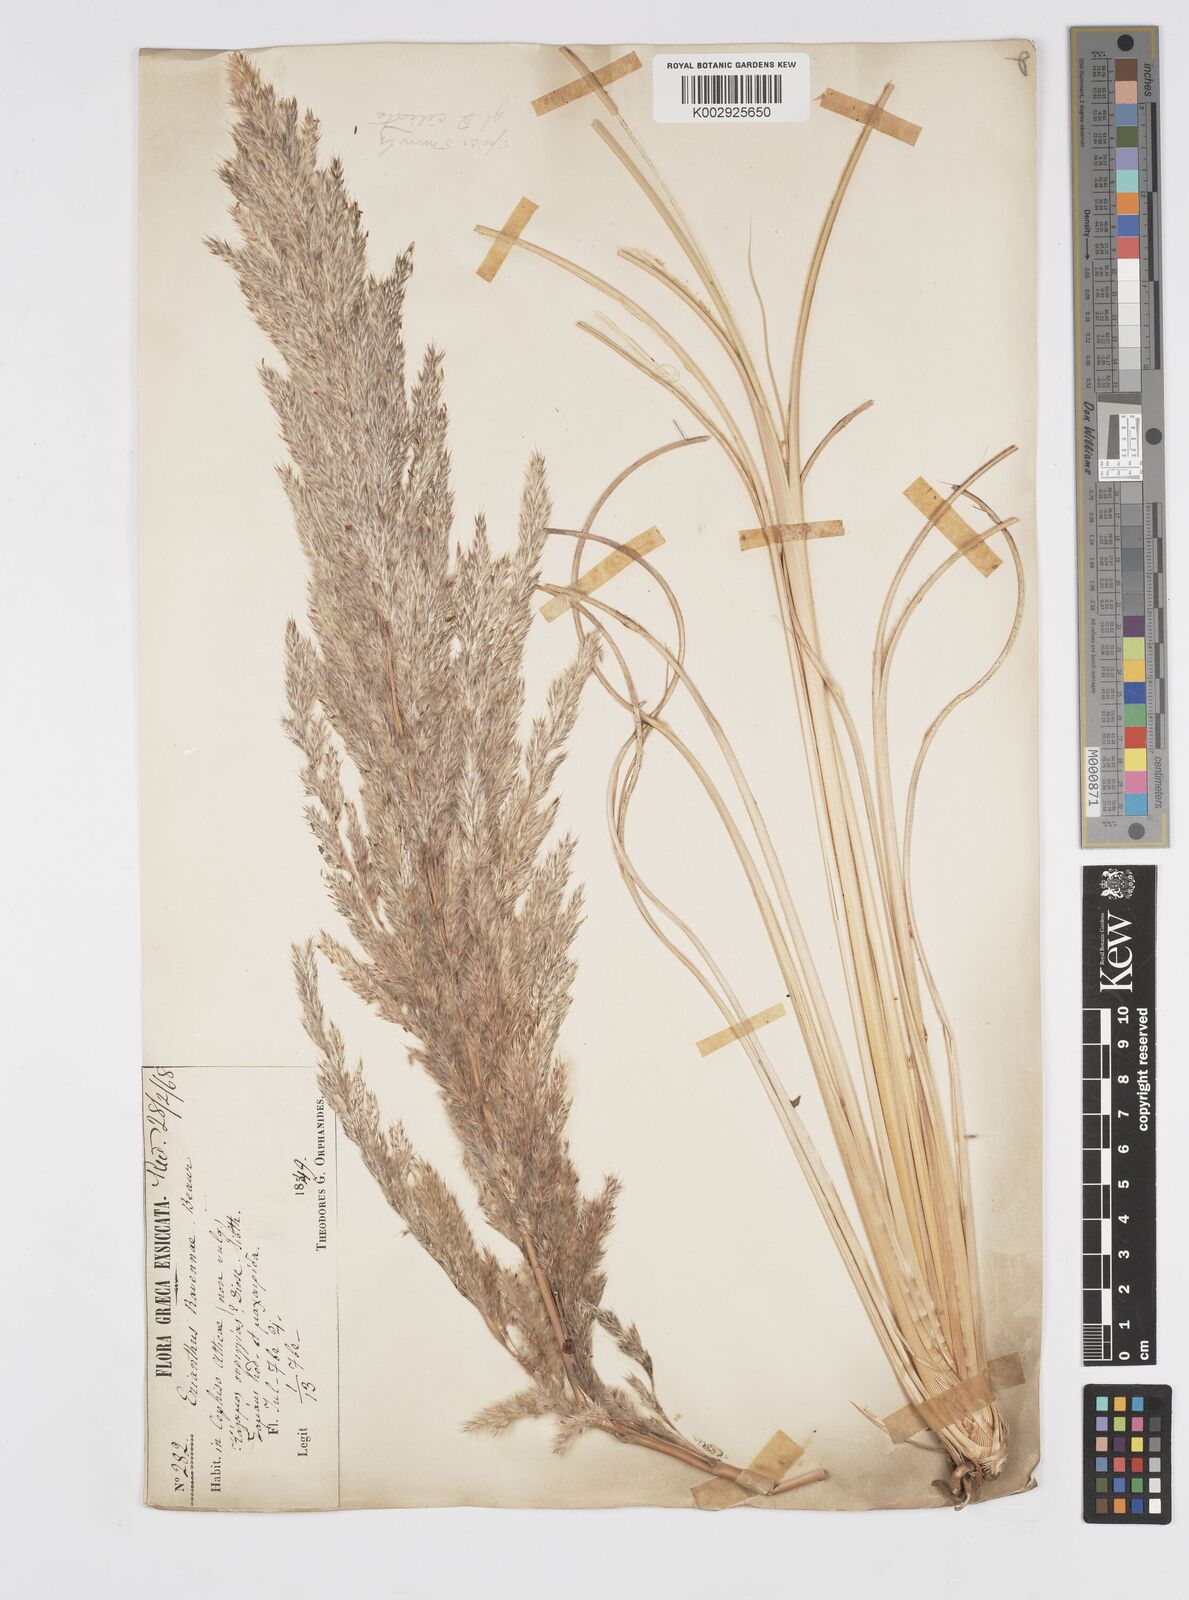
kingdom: Plantae
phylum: Tracheophyta
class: Liliopsida
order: Poales
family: Poaceae
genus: Tripidium
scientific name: Tripidium ravennae
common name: Ravenna grass
